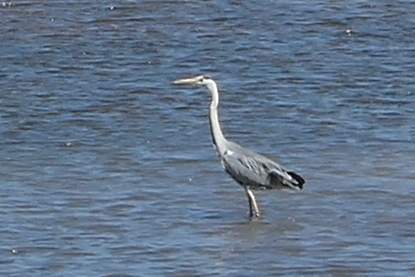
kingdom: Animalia
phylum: Chordata
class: Aves
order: Pelecaniformes
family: Ardeidae
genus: Ardea
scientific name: Ardea cinerea
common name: Grey heron
